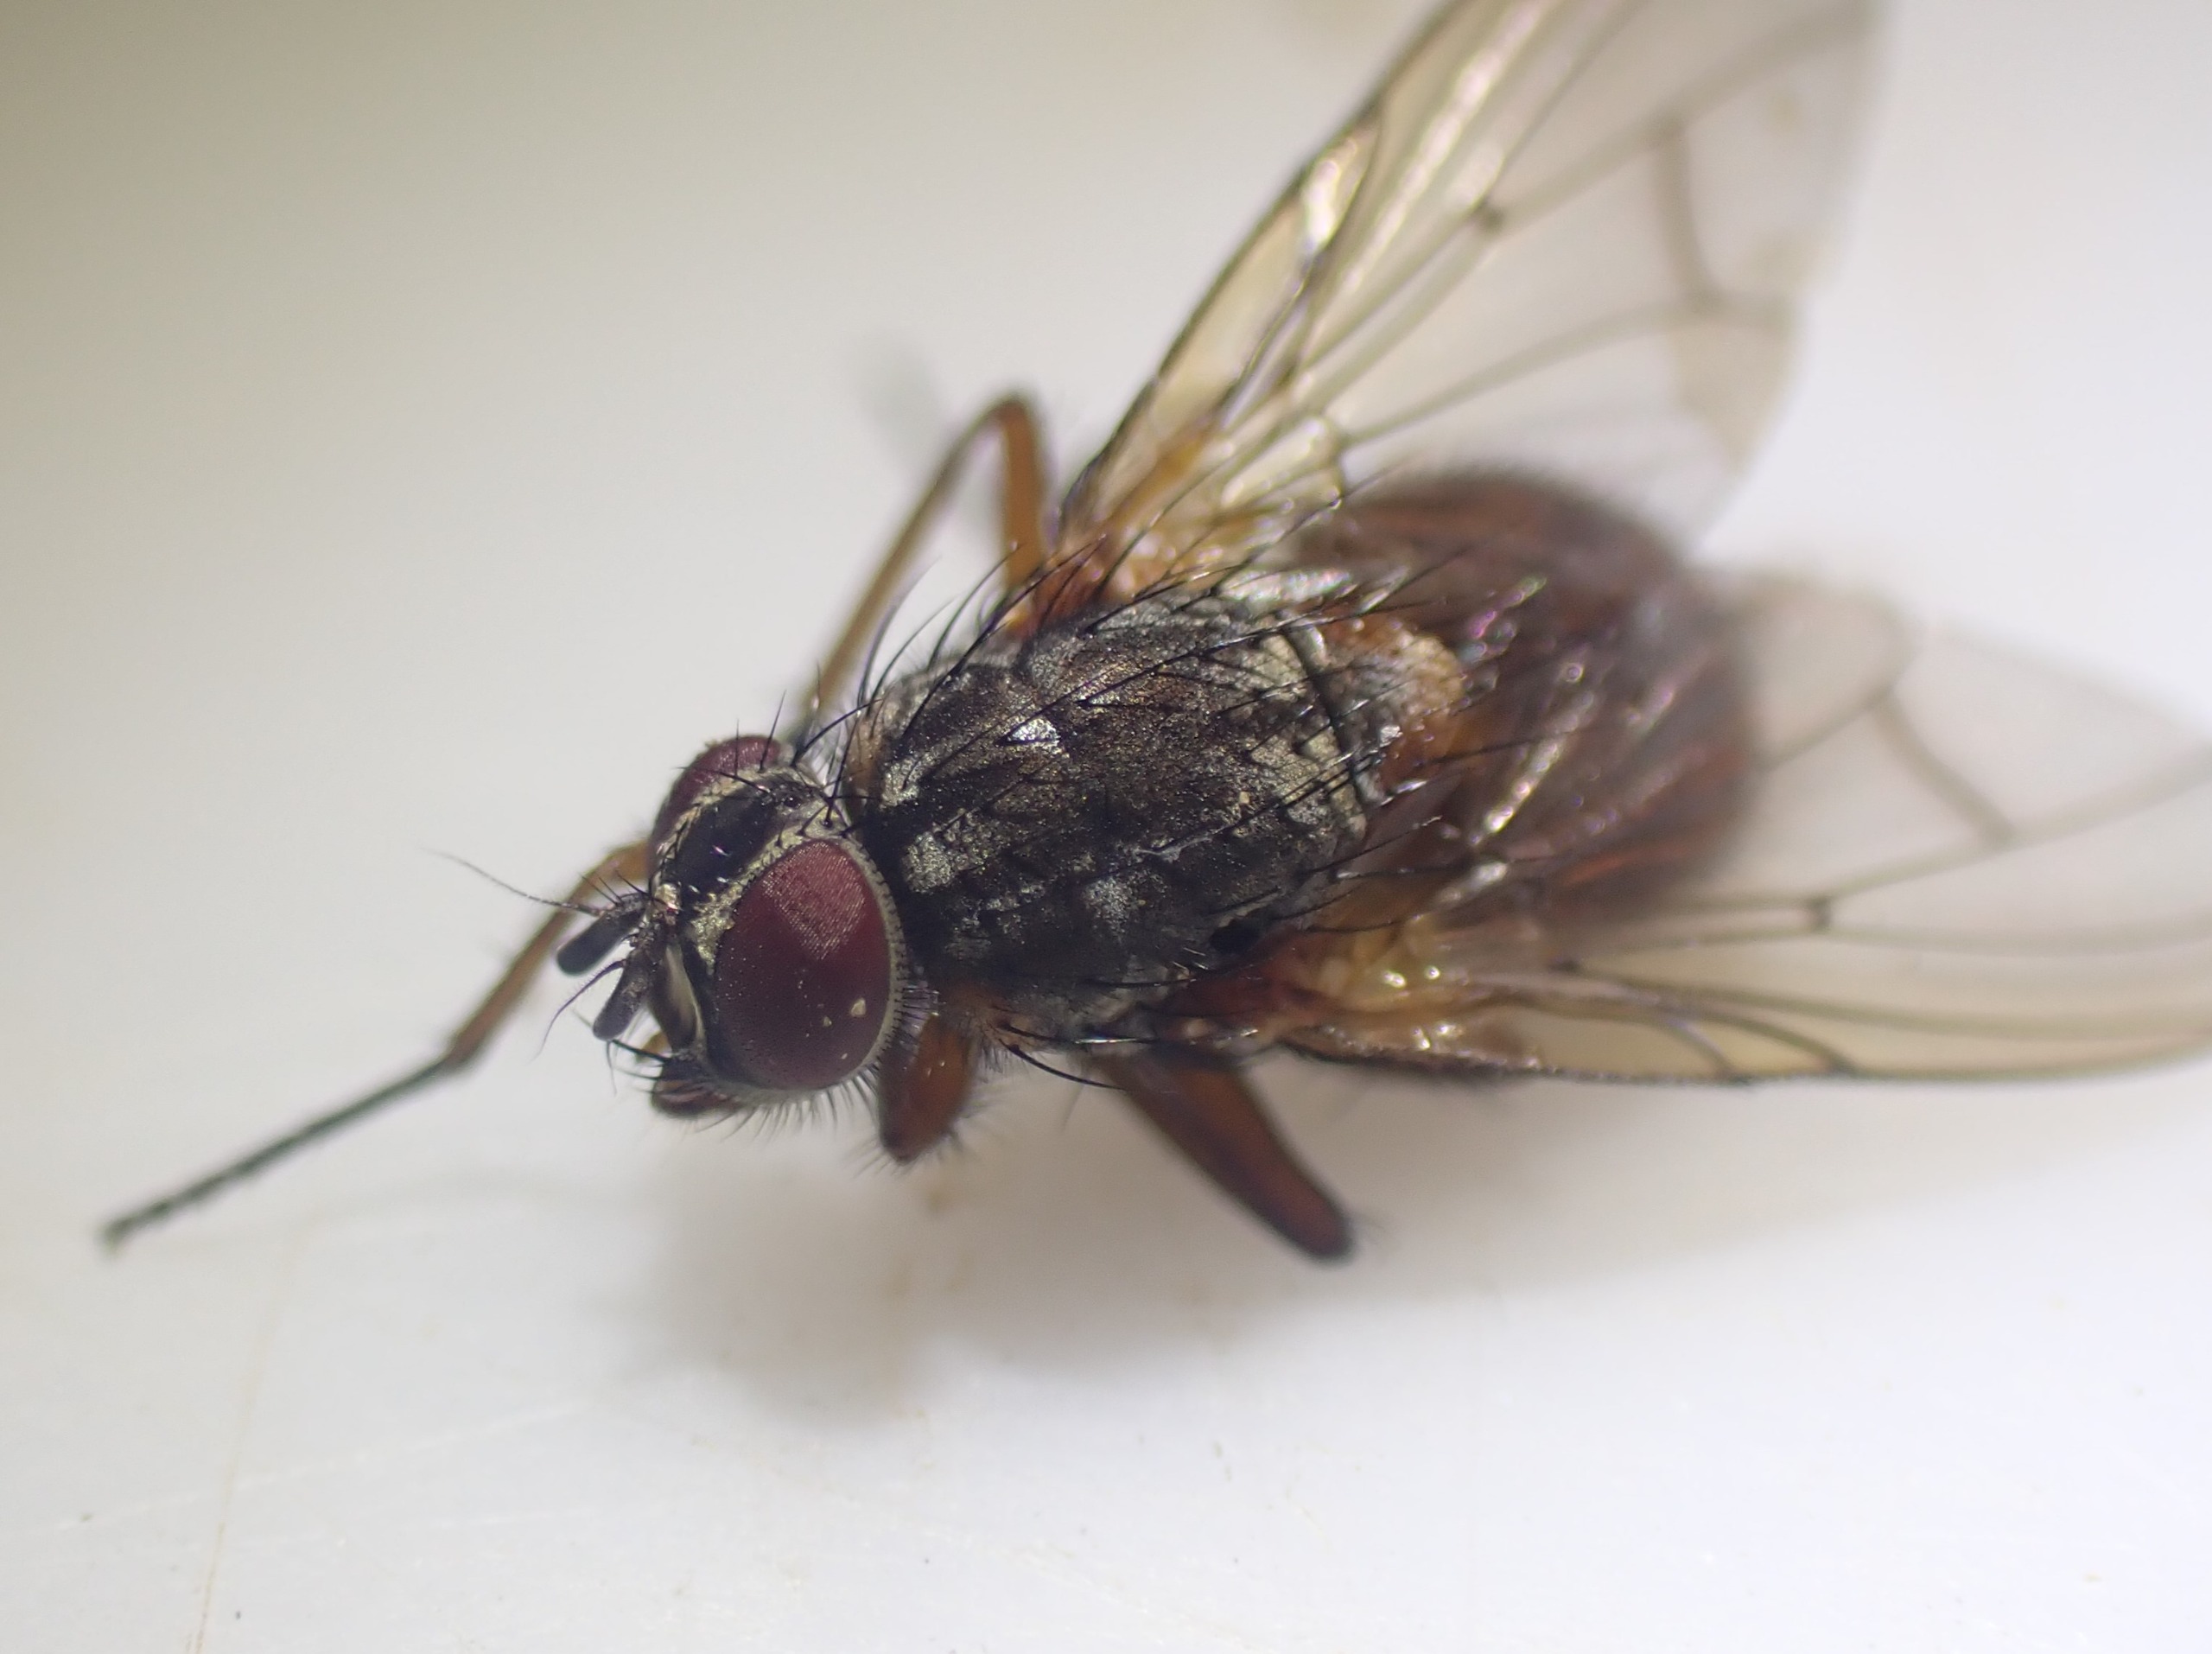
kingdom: Animalia
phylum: Arthropoda
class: Insecta
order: Diptera
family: Muscidae
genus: Phaonia
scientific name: Phaonia subventa
